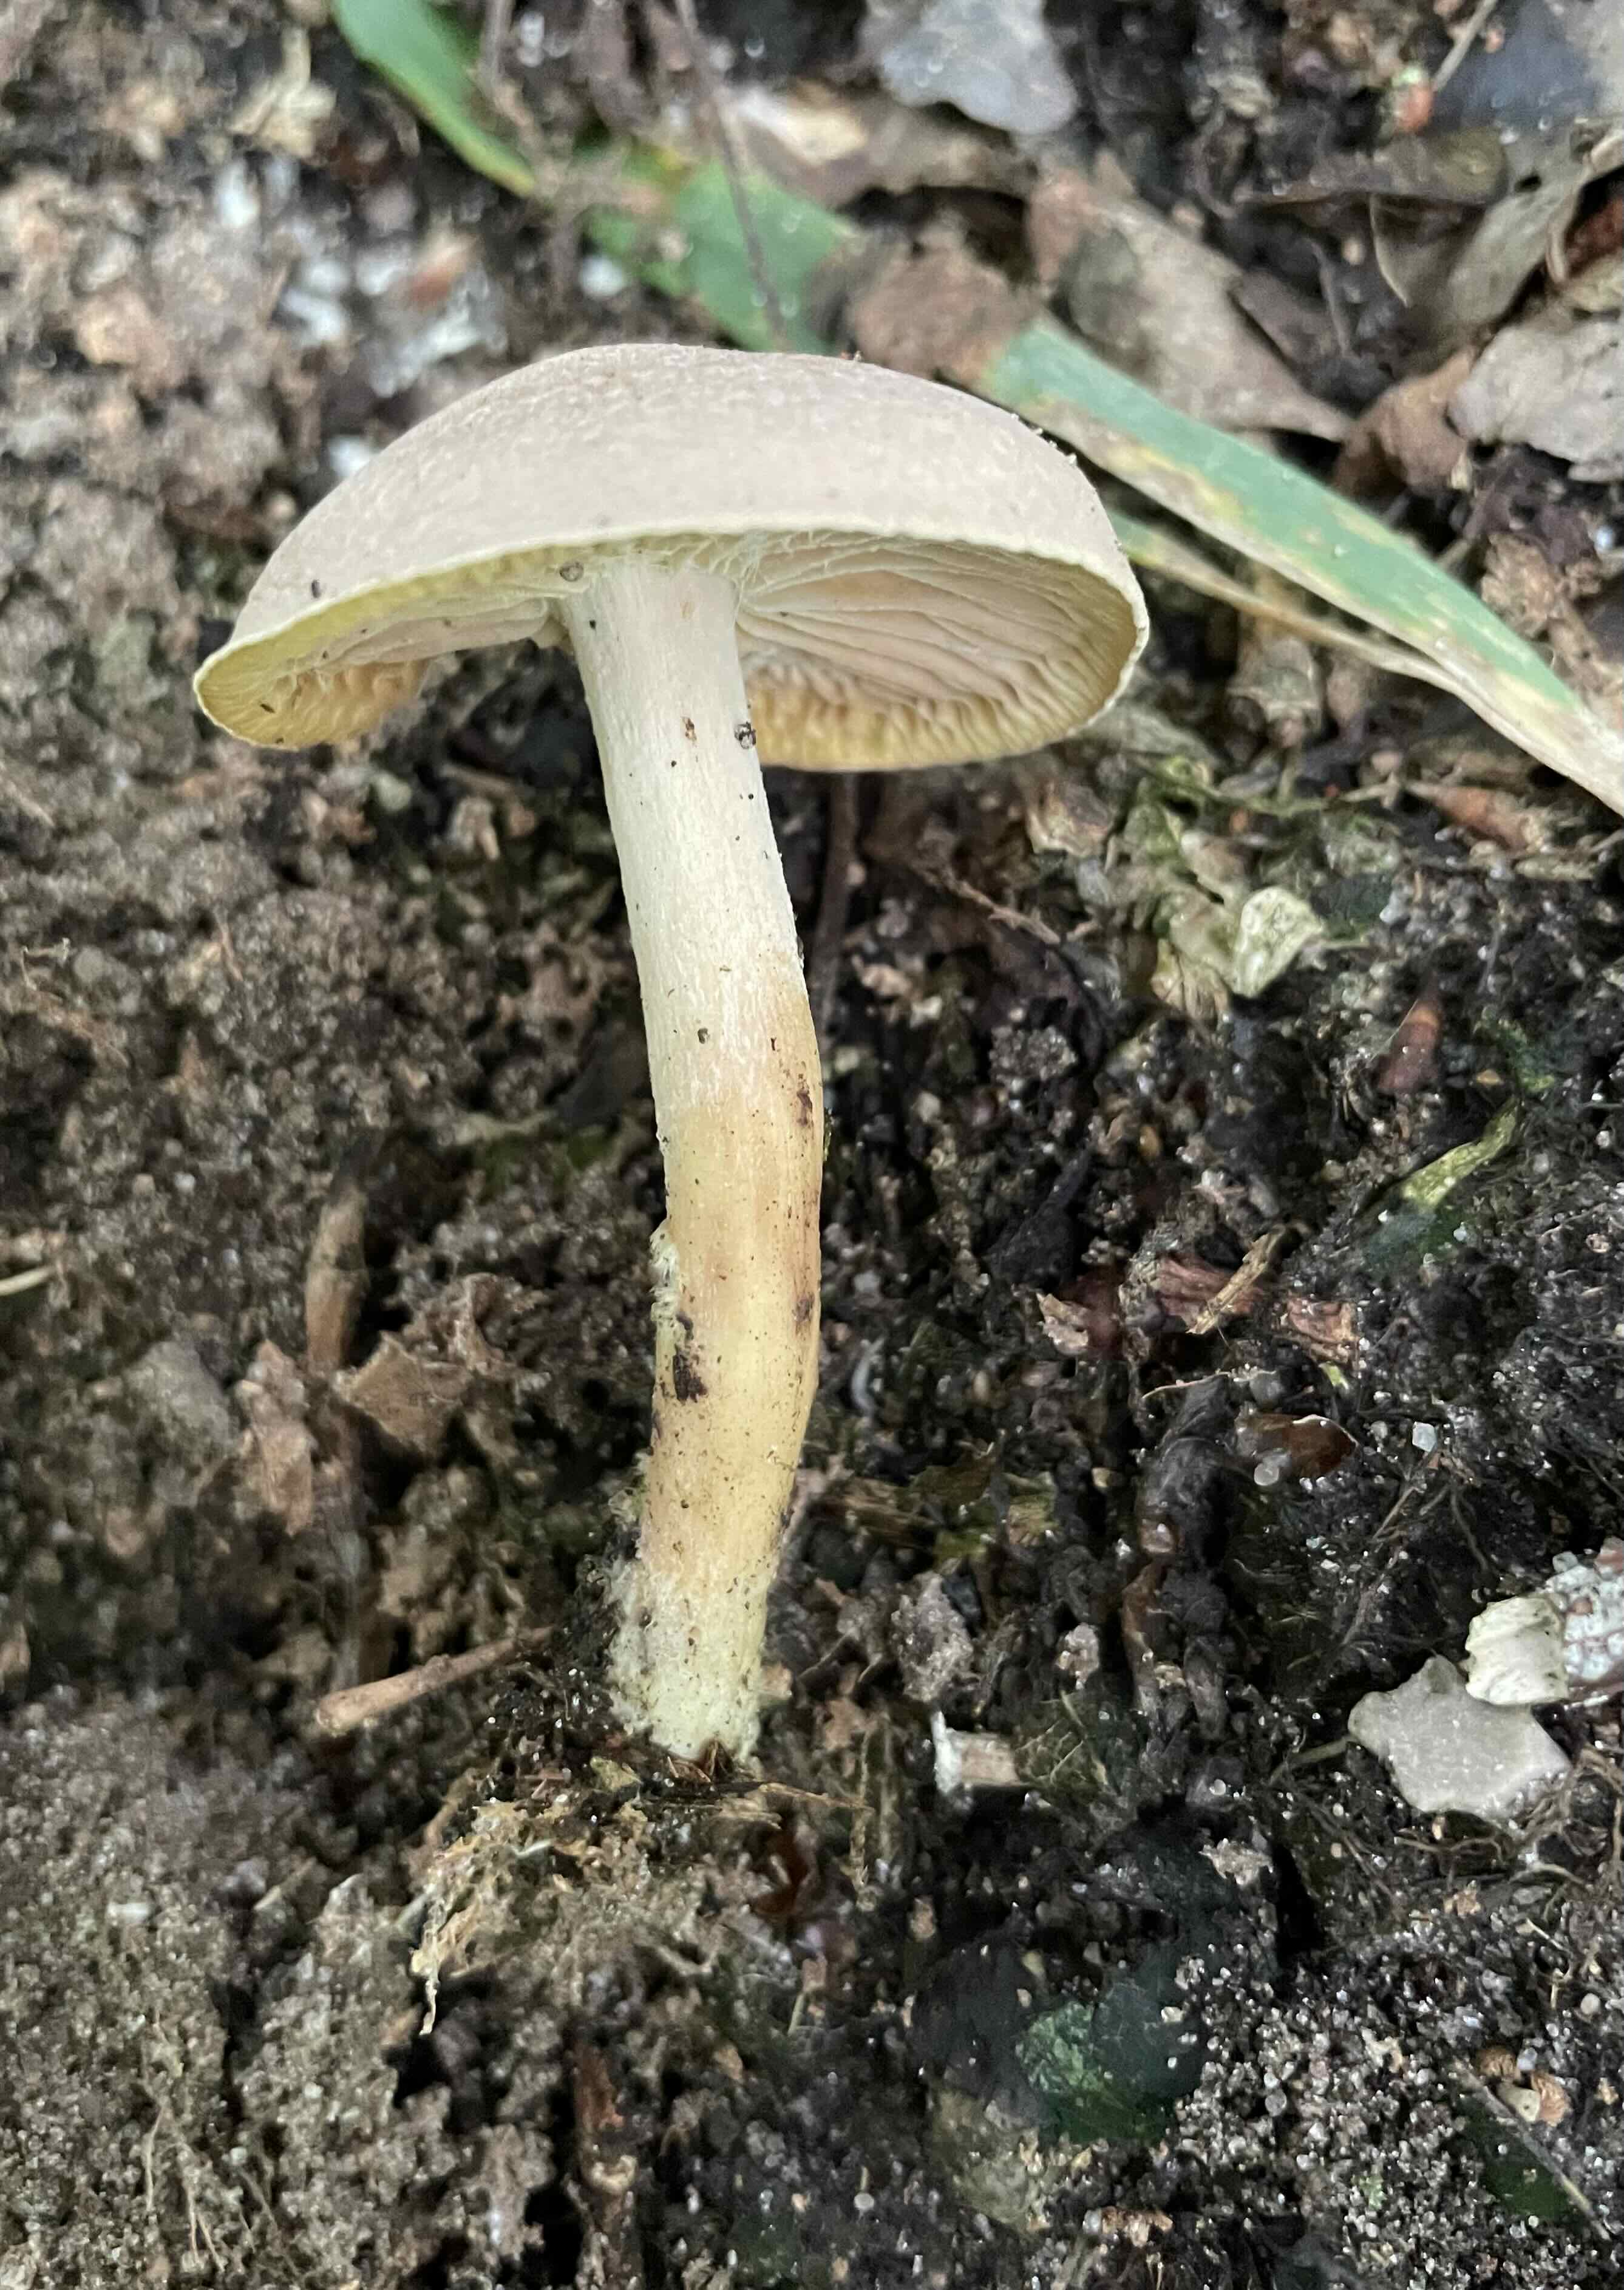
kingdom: Fungi
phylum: Basidiomycota
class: Agaricomycetes
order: Agaricales
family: Omphalotaceae
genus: Collybiopsis
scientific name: Collybiopsis peronata
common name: bestøvlet fladhat
